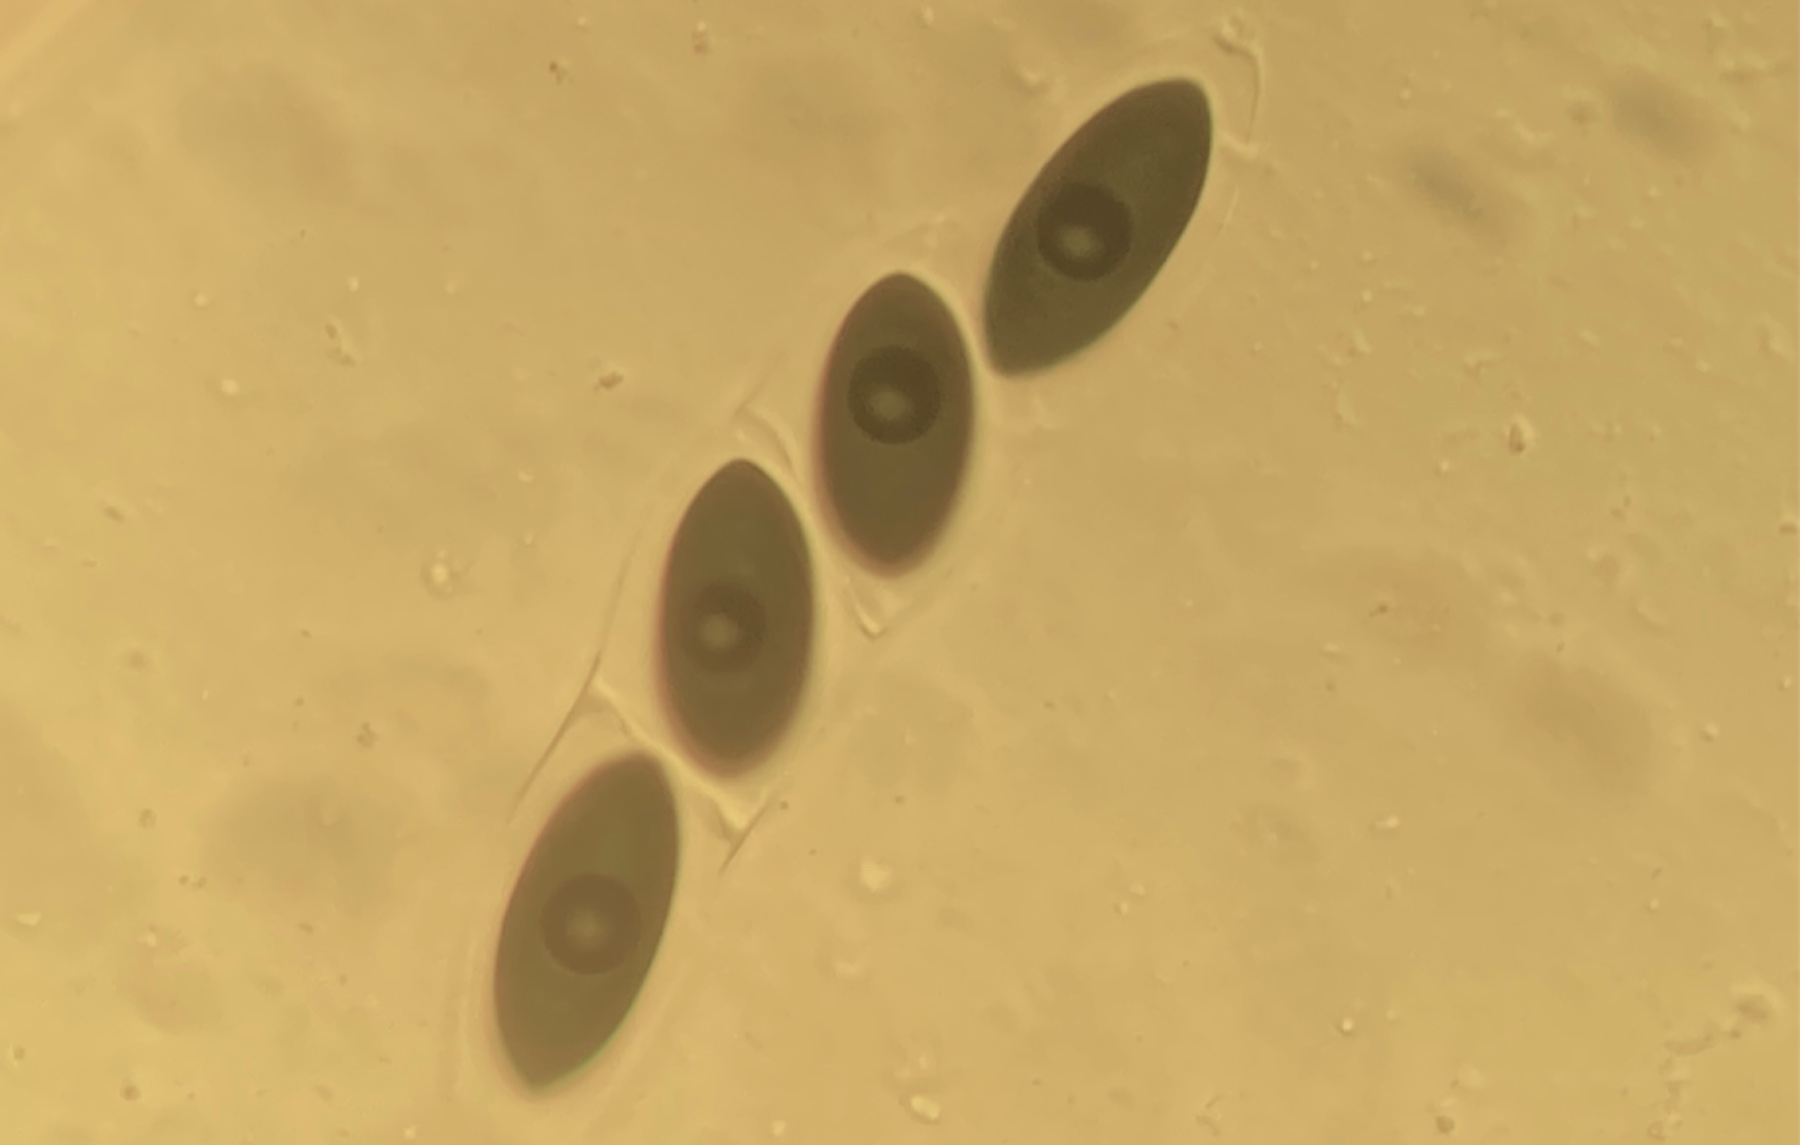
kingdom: Fungi
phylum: Ascomycota
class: Sordariomycetes
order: Sordariales
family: Sordariaceae
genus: Sordaria
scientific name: Sordaria fimicola
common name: gødnings-kernesvamp
